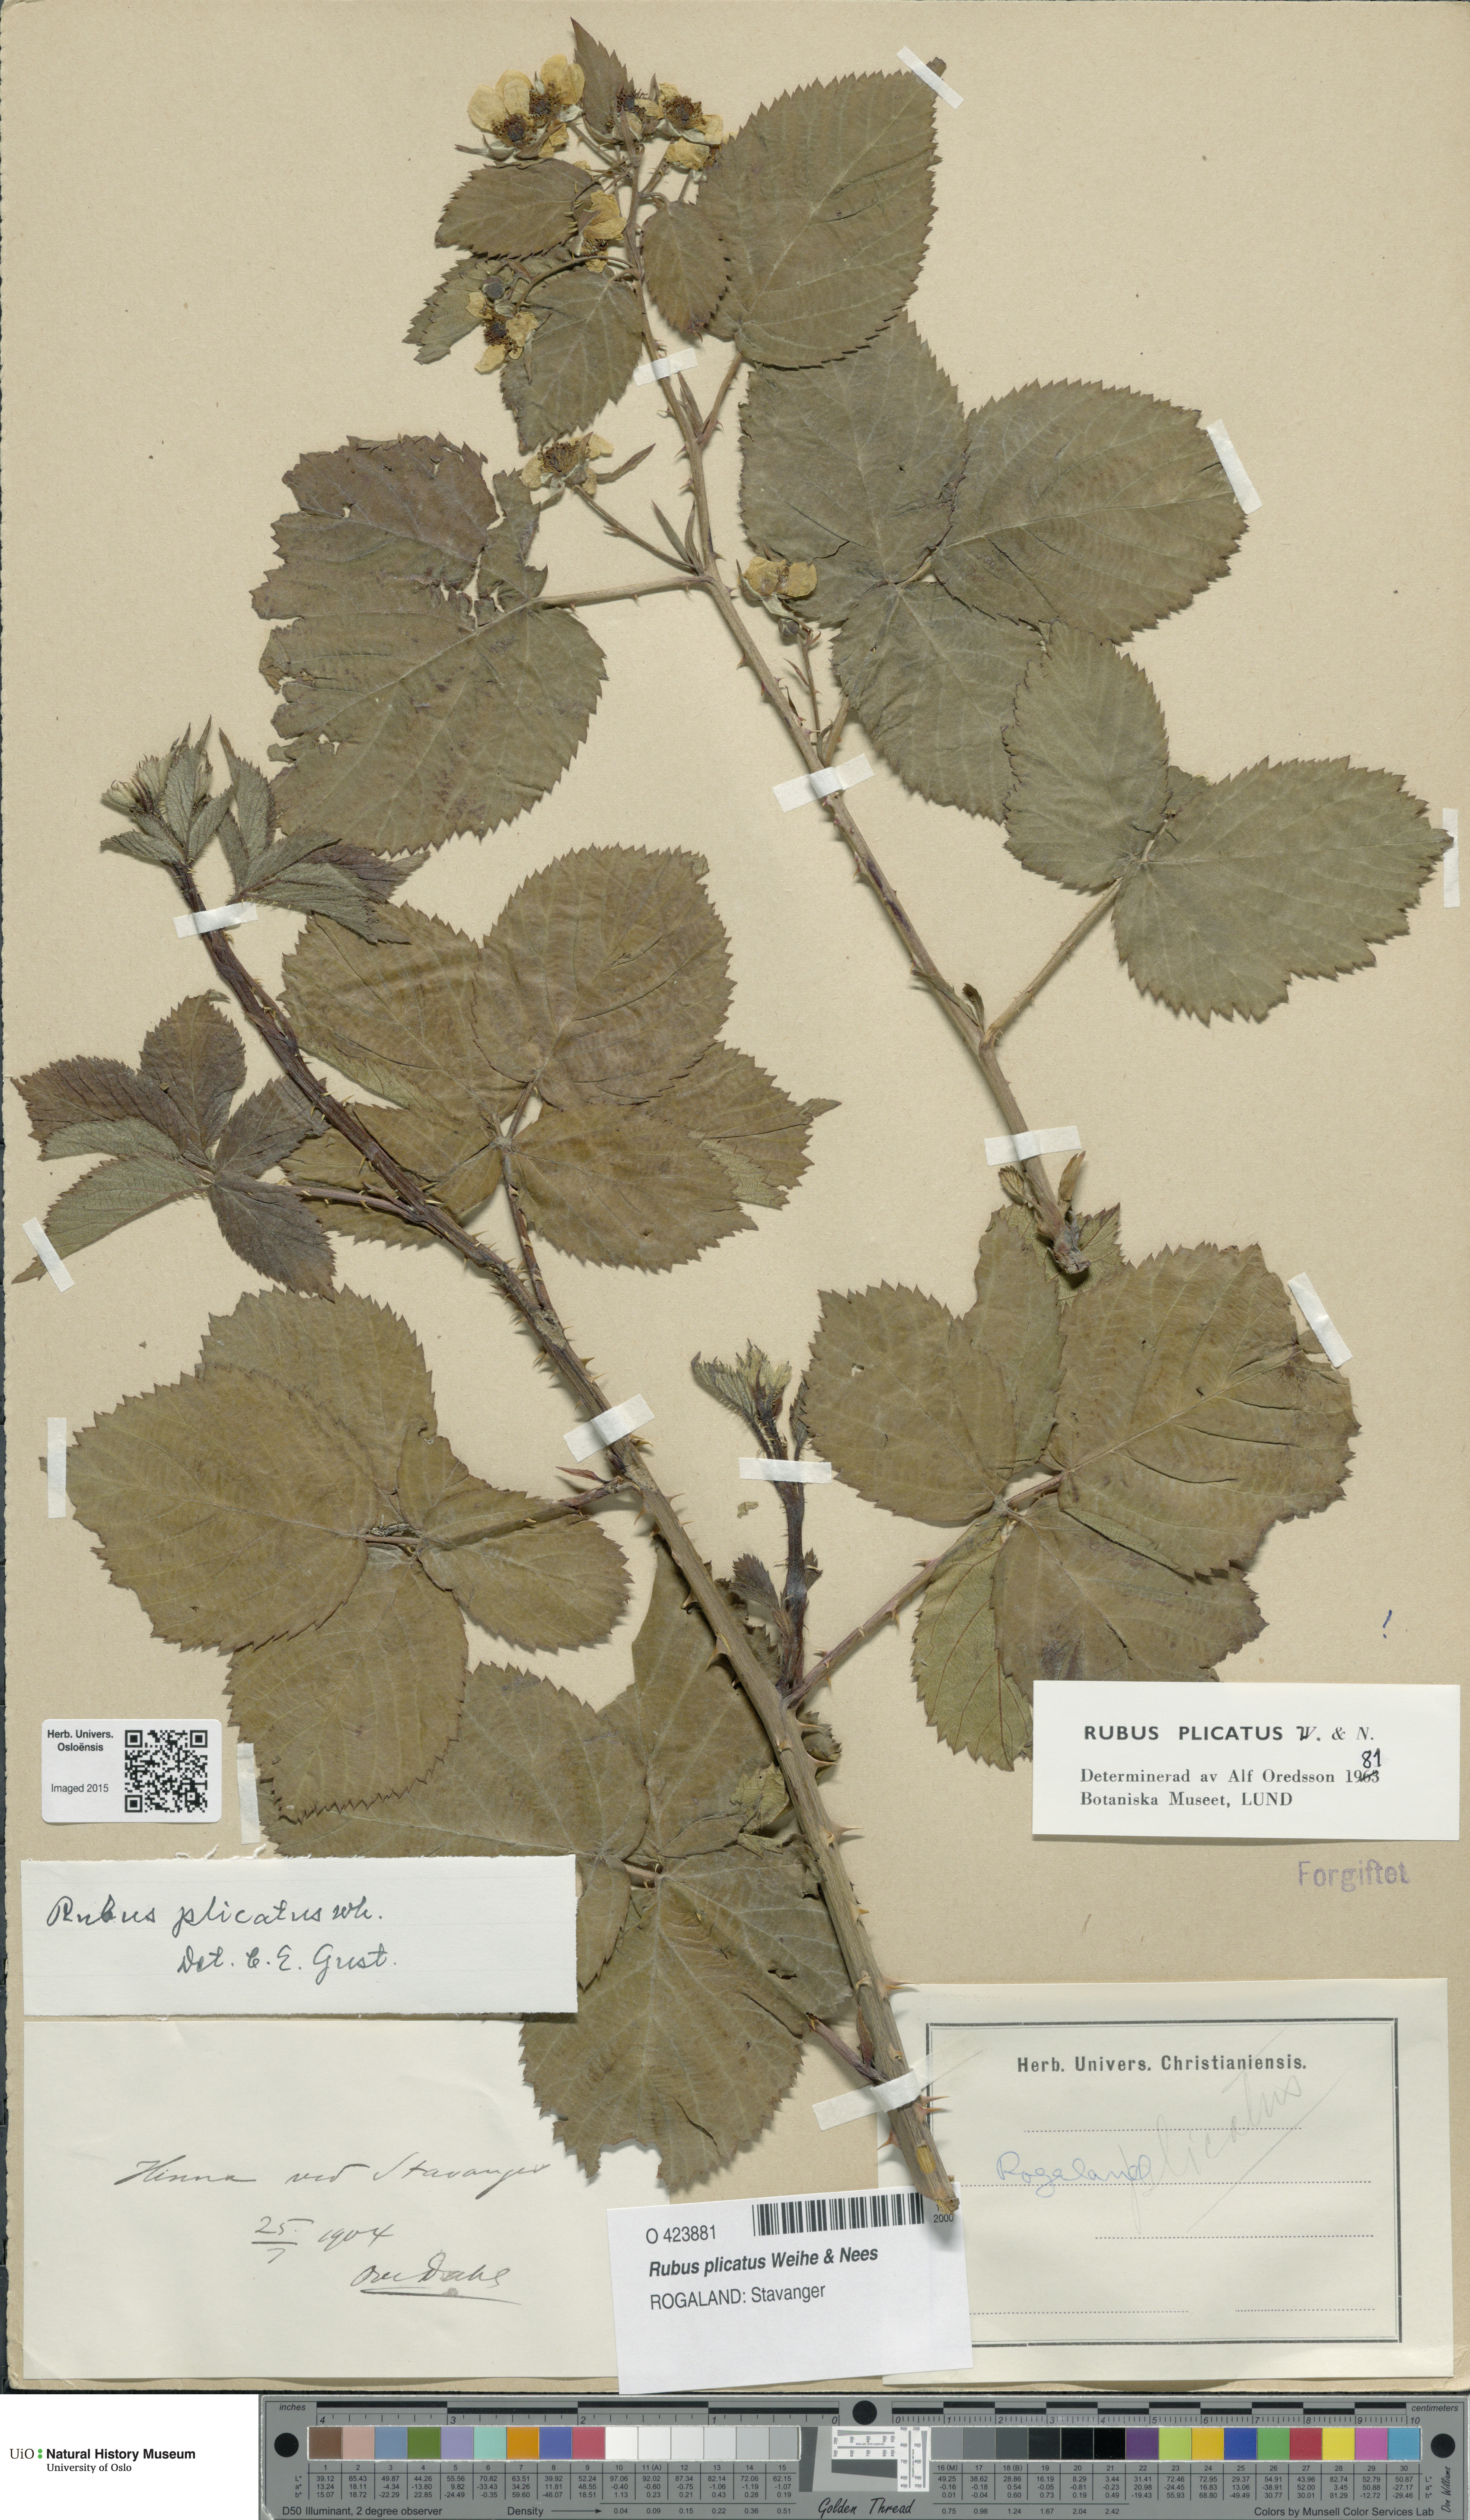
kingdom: Plantae
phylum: Tracheophyta
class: Magnoliopsida
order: Rosales
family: Rosaceae
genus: Rubus
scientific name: Rubus fruticosus
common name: Blackberry, bramble
